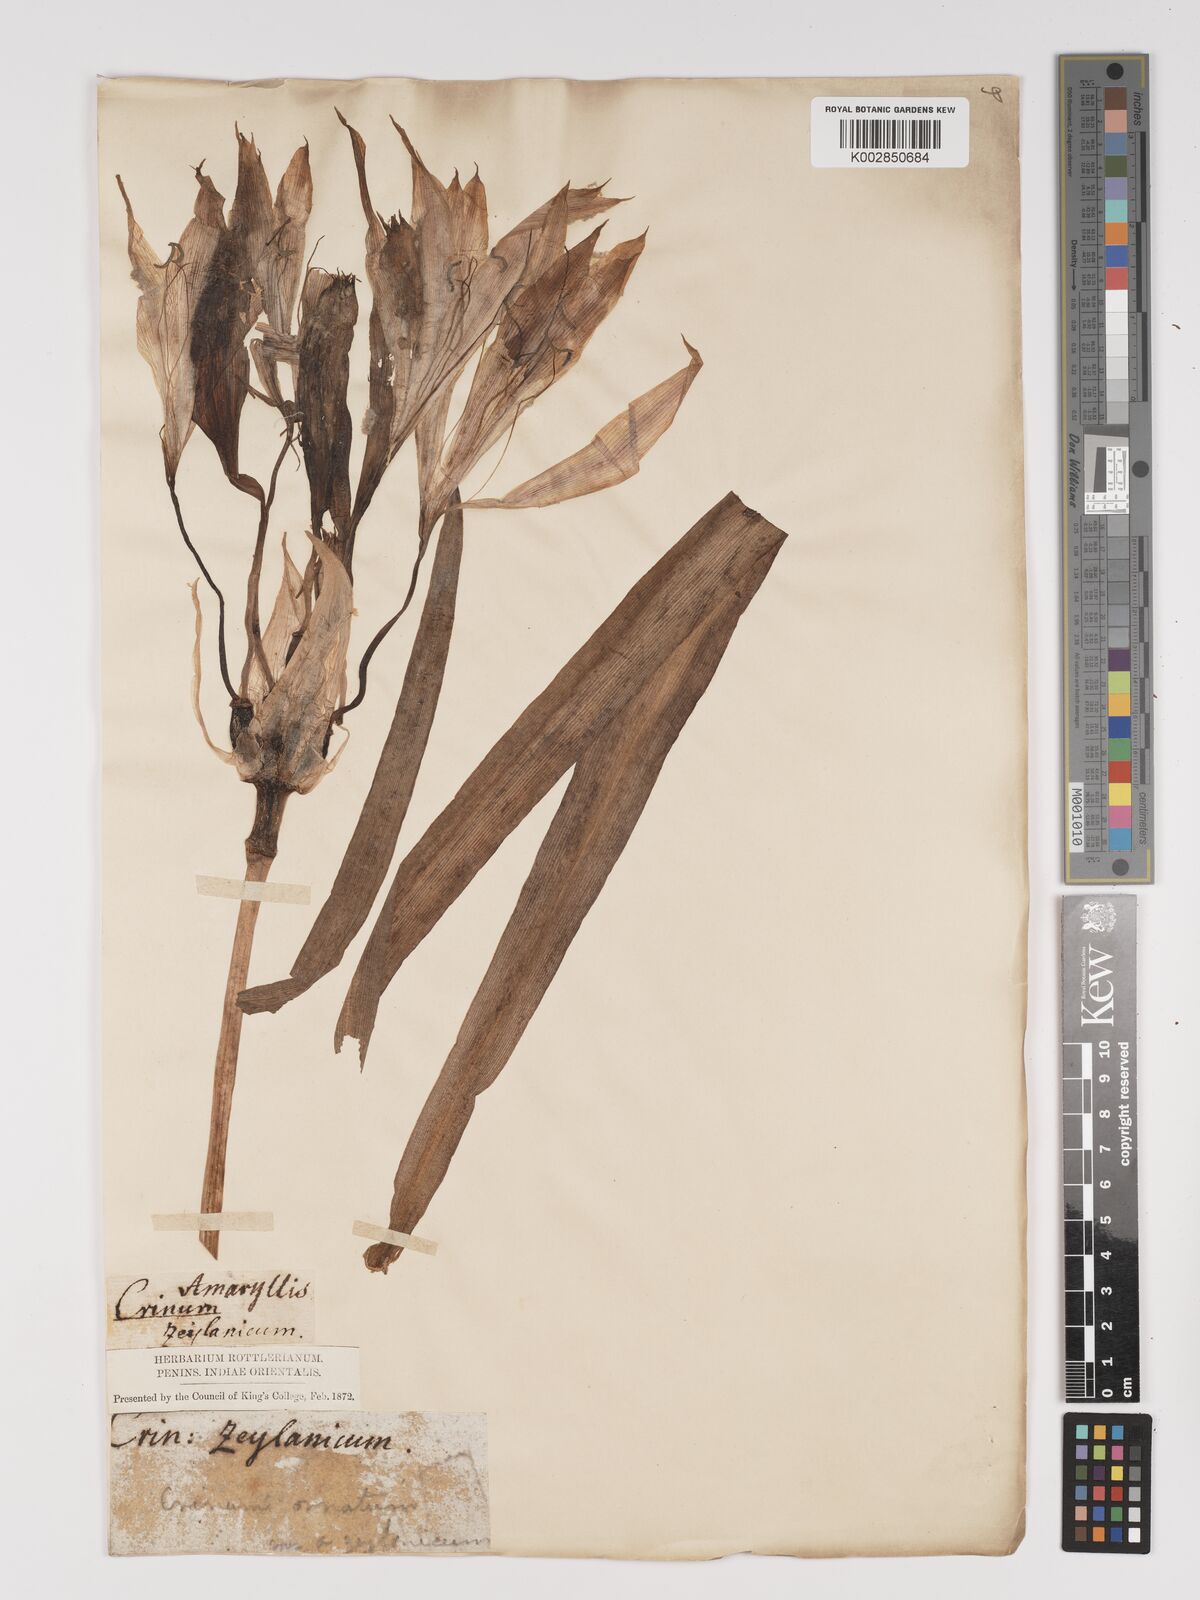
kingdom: Plantae
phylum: Tracheophyta
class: Liliopsida
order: Asparagales
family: Amaryllidaceae
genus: Crinum
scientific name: Crinum zeylanicum
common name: Ceylon swamplily
